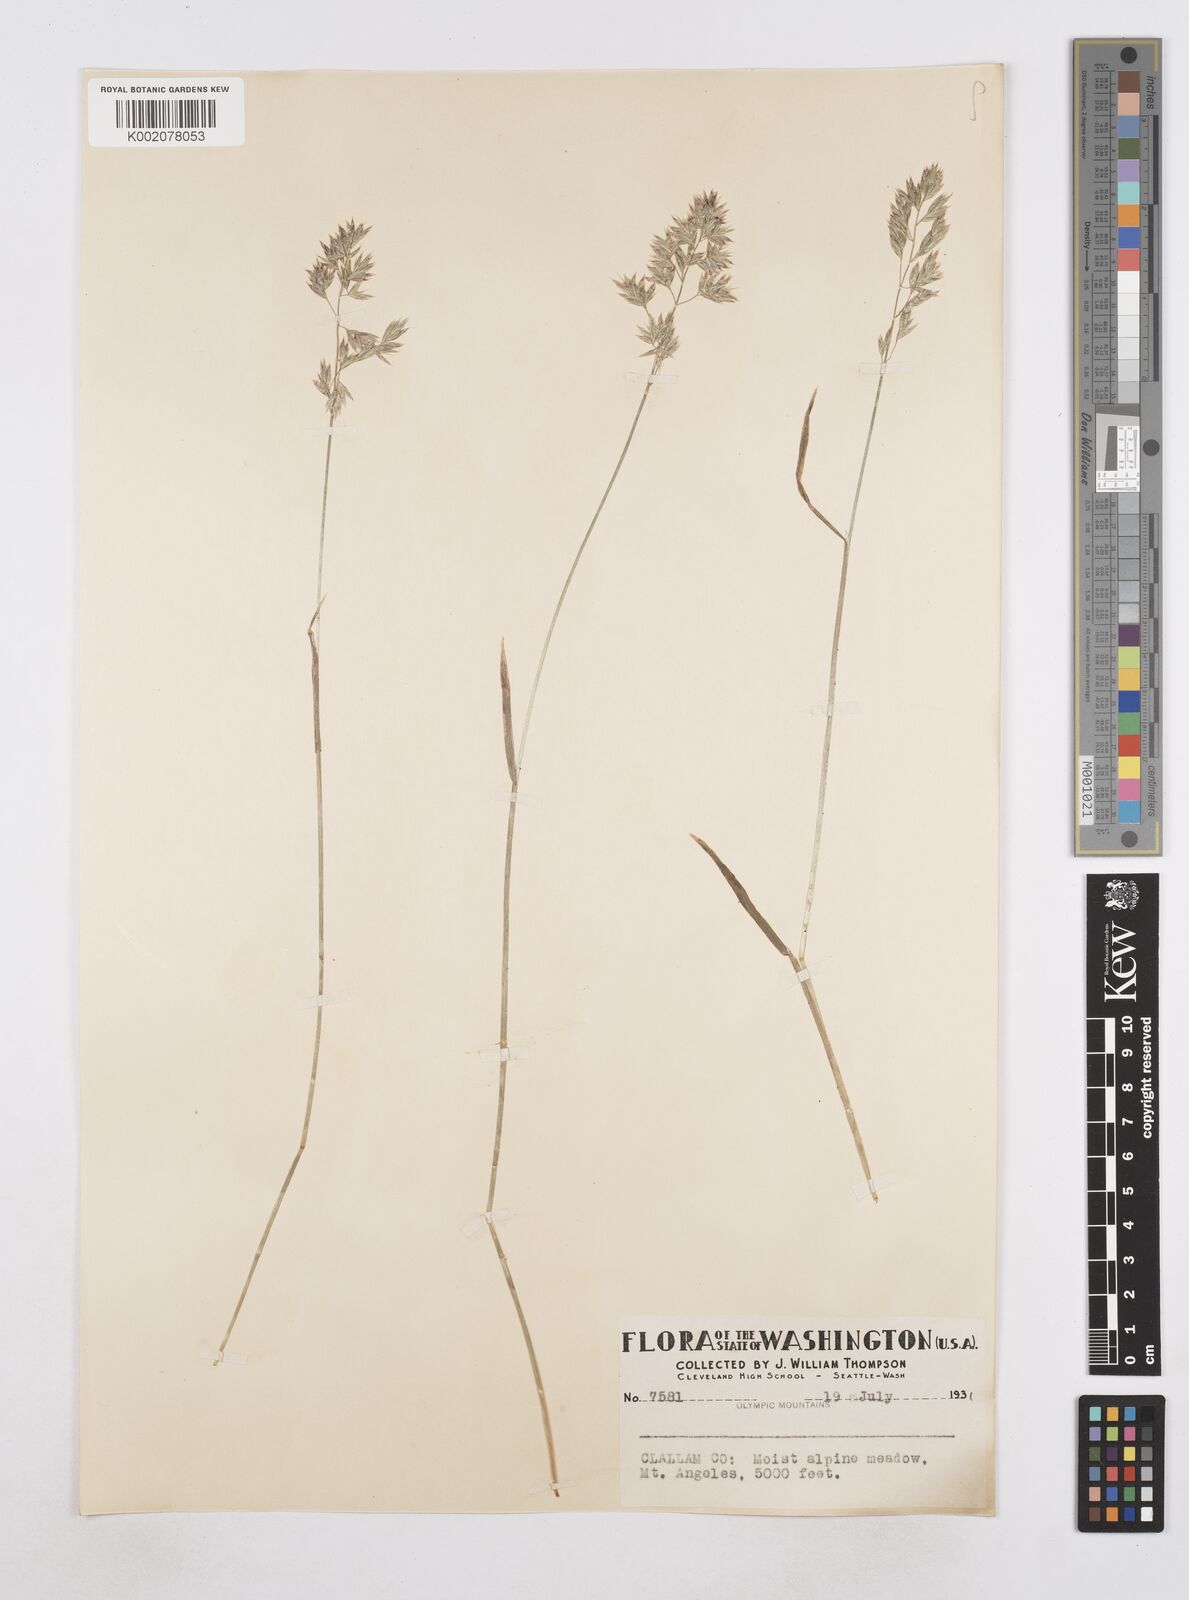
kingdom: Plantae
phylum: Tracheophyta
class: Liliopsida
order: Poales
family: Poaceae
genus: Poa
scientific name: Poa
